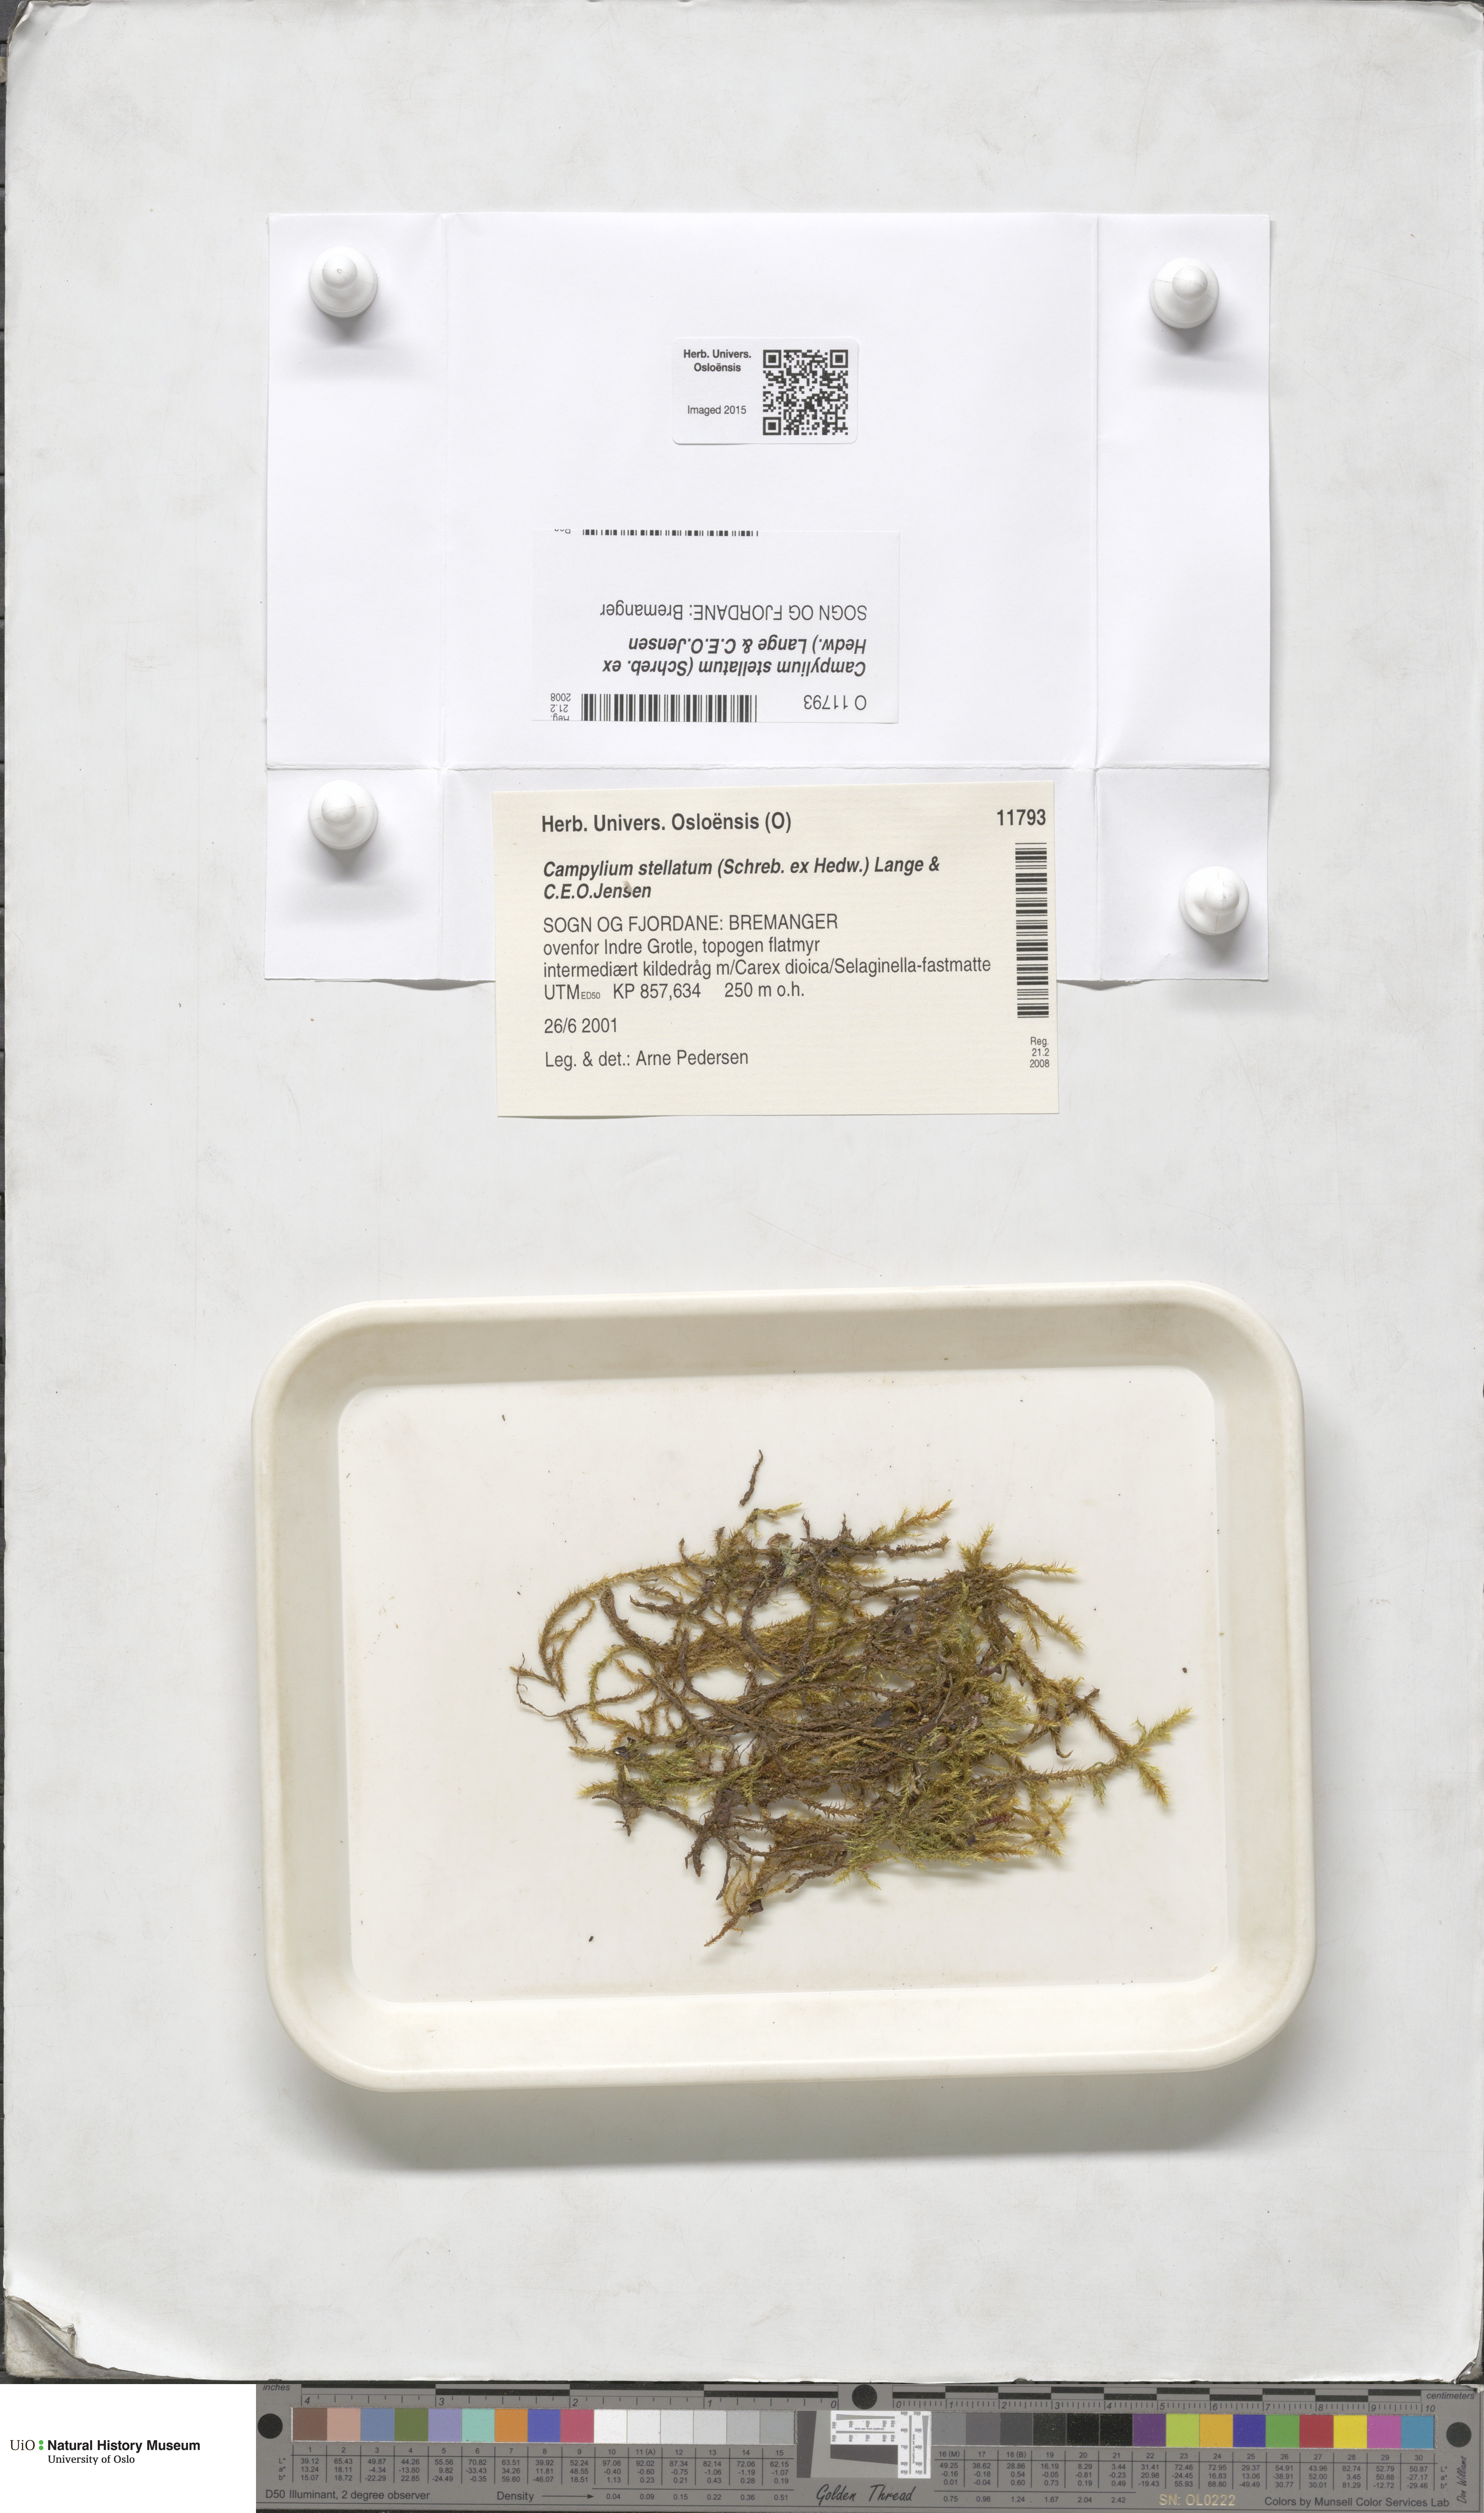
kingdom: Plantae
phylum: Bryophyta
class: Bryopsida
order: Hypnales
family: Amblystegiaceae
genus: Campylium
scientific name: Campylium stellatum
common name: Yellow starry fen moss
